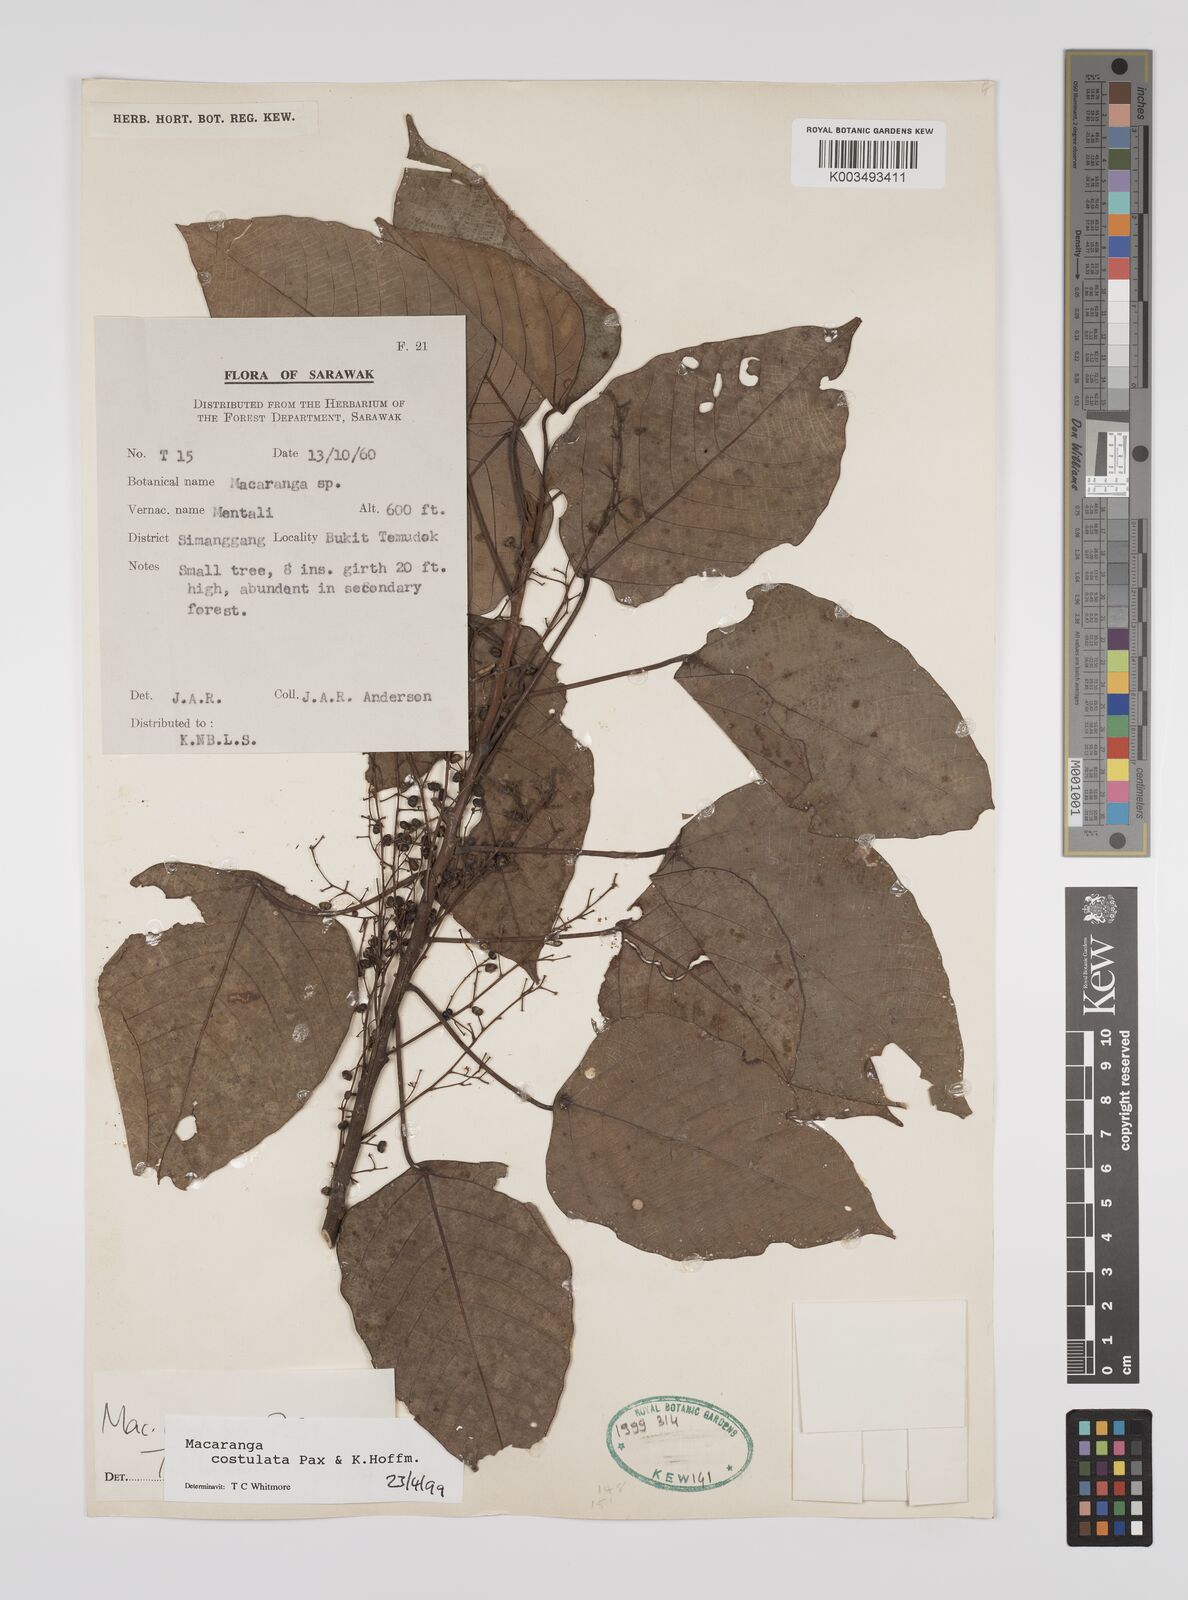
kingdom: Plantae
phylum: Tracheophyta
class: Magnoliopsida
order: Malpighiales
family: Euphorbiaceae
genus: Macaranga
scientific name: Macaranga costulata
